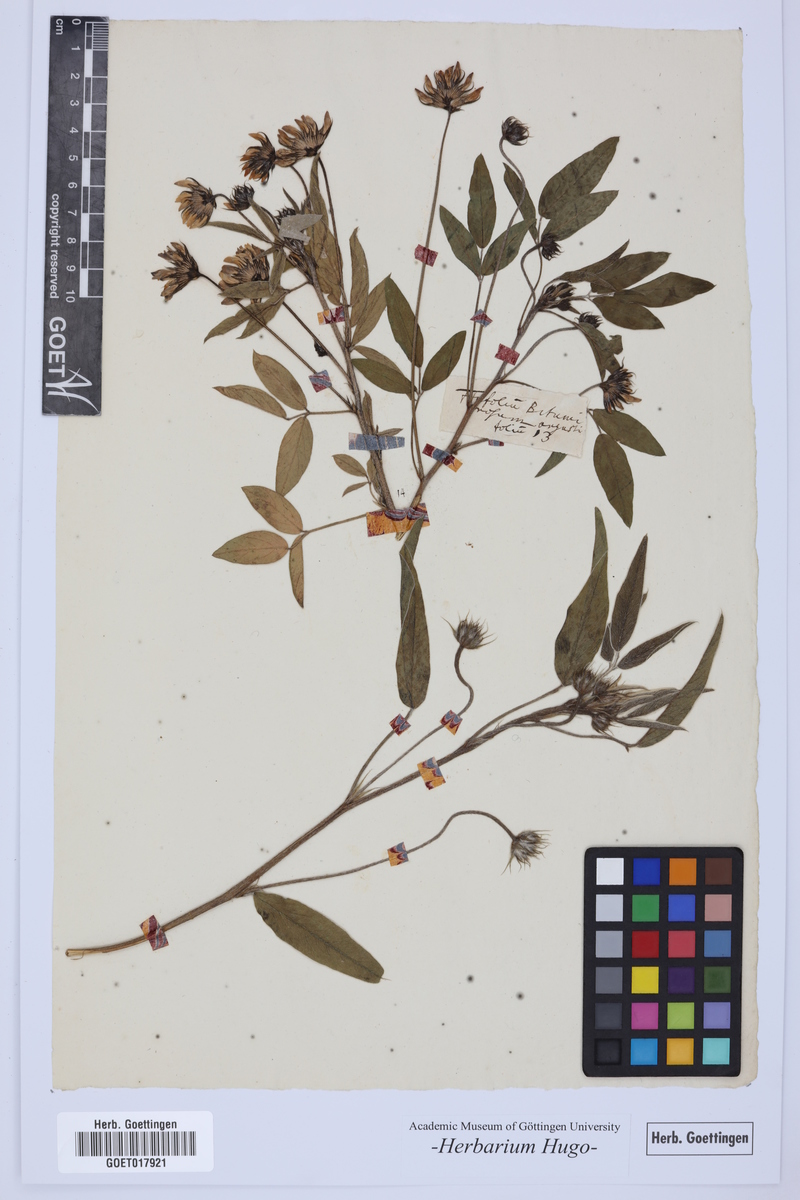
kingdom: Plantae
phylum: Tracheophyta
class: Magnoliopsida
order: Fabales
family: Fabaceae
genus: Trifolium
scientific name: Trifolium
